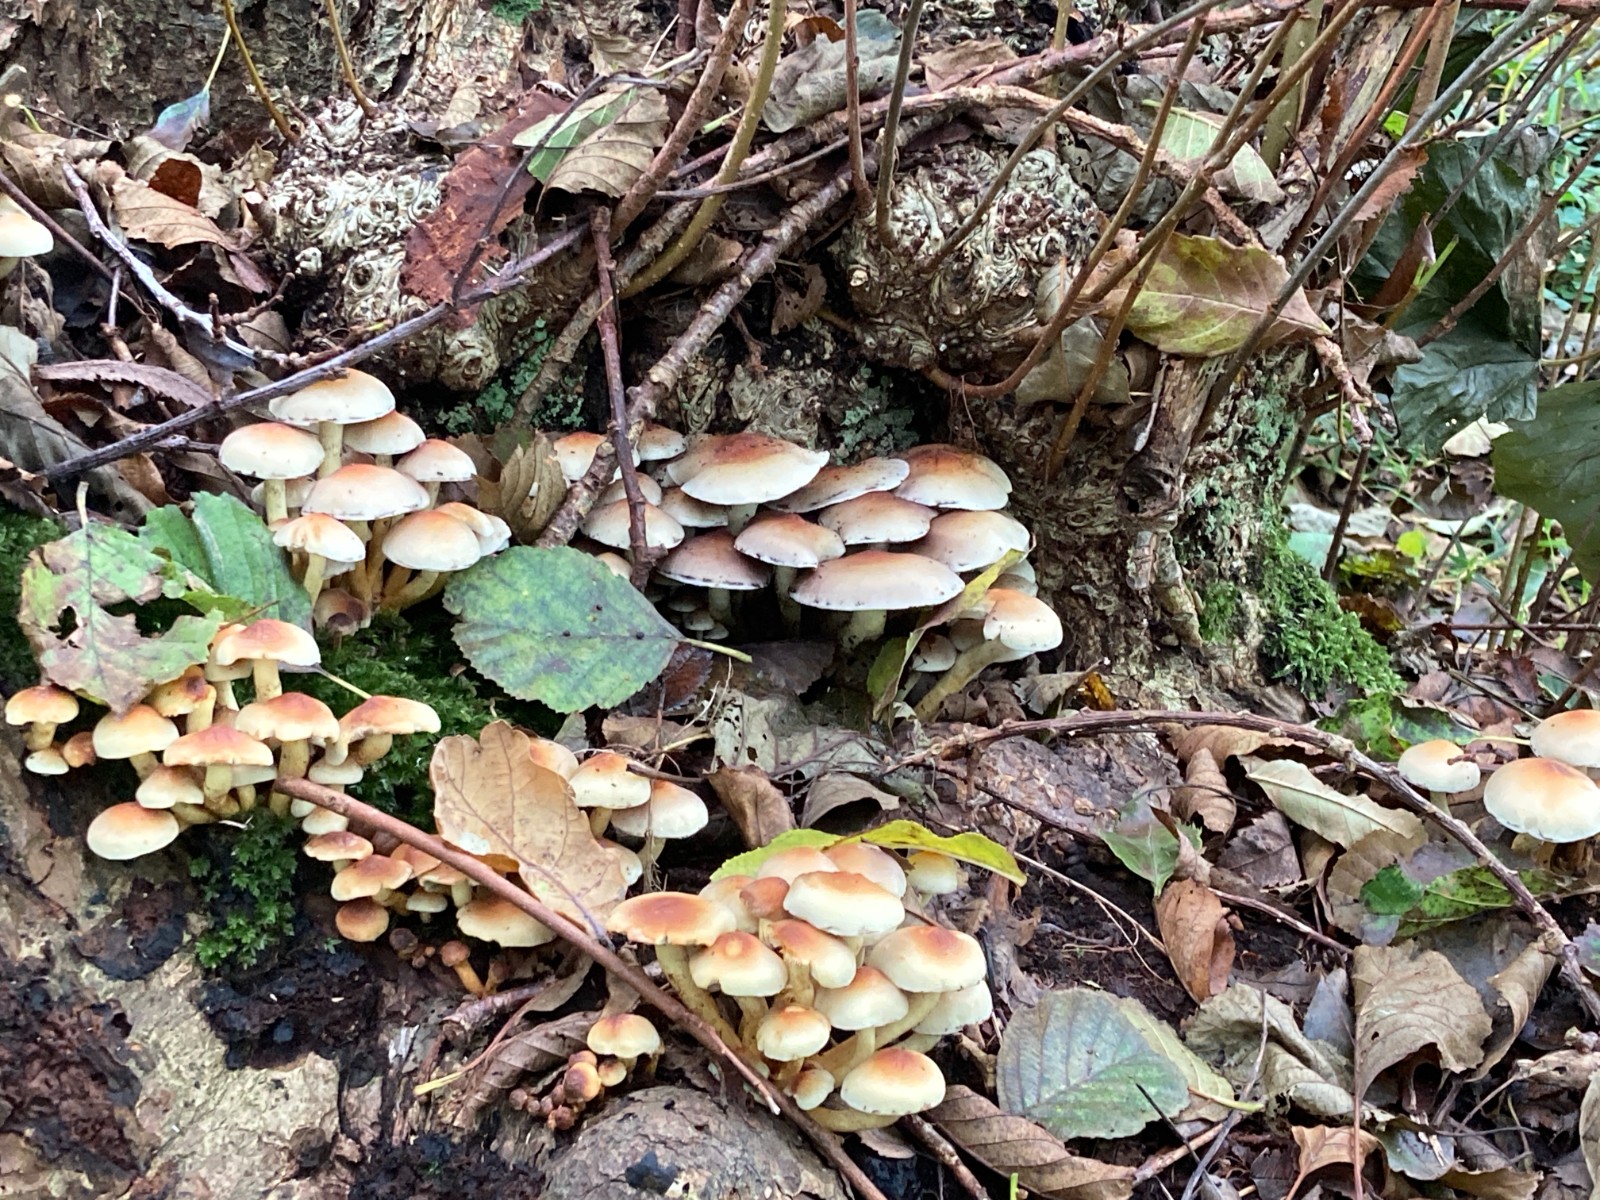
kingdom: Fungi
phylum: Basidiomycota
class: Agaricomycetes
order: Agaricales
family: Strophariaceae
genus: Hypholoma
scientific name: Hypholoma fasciculare
